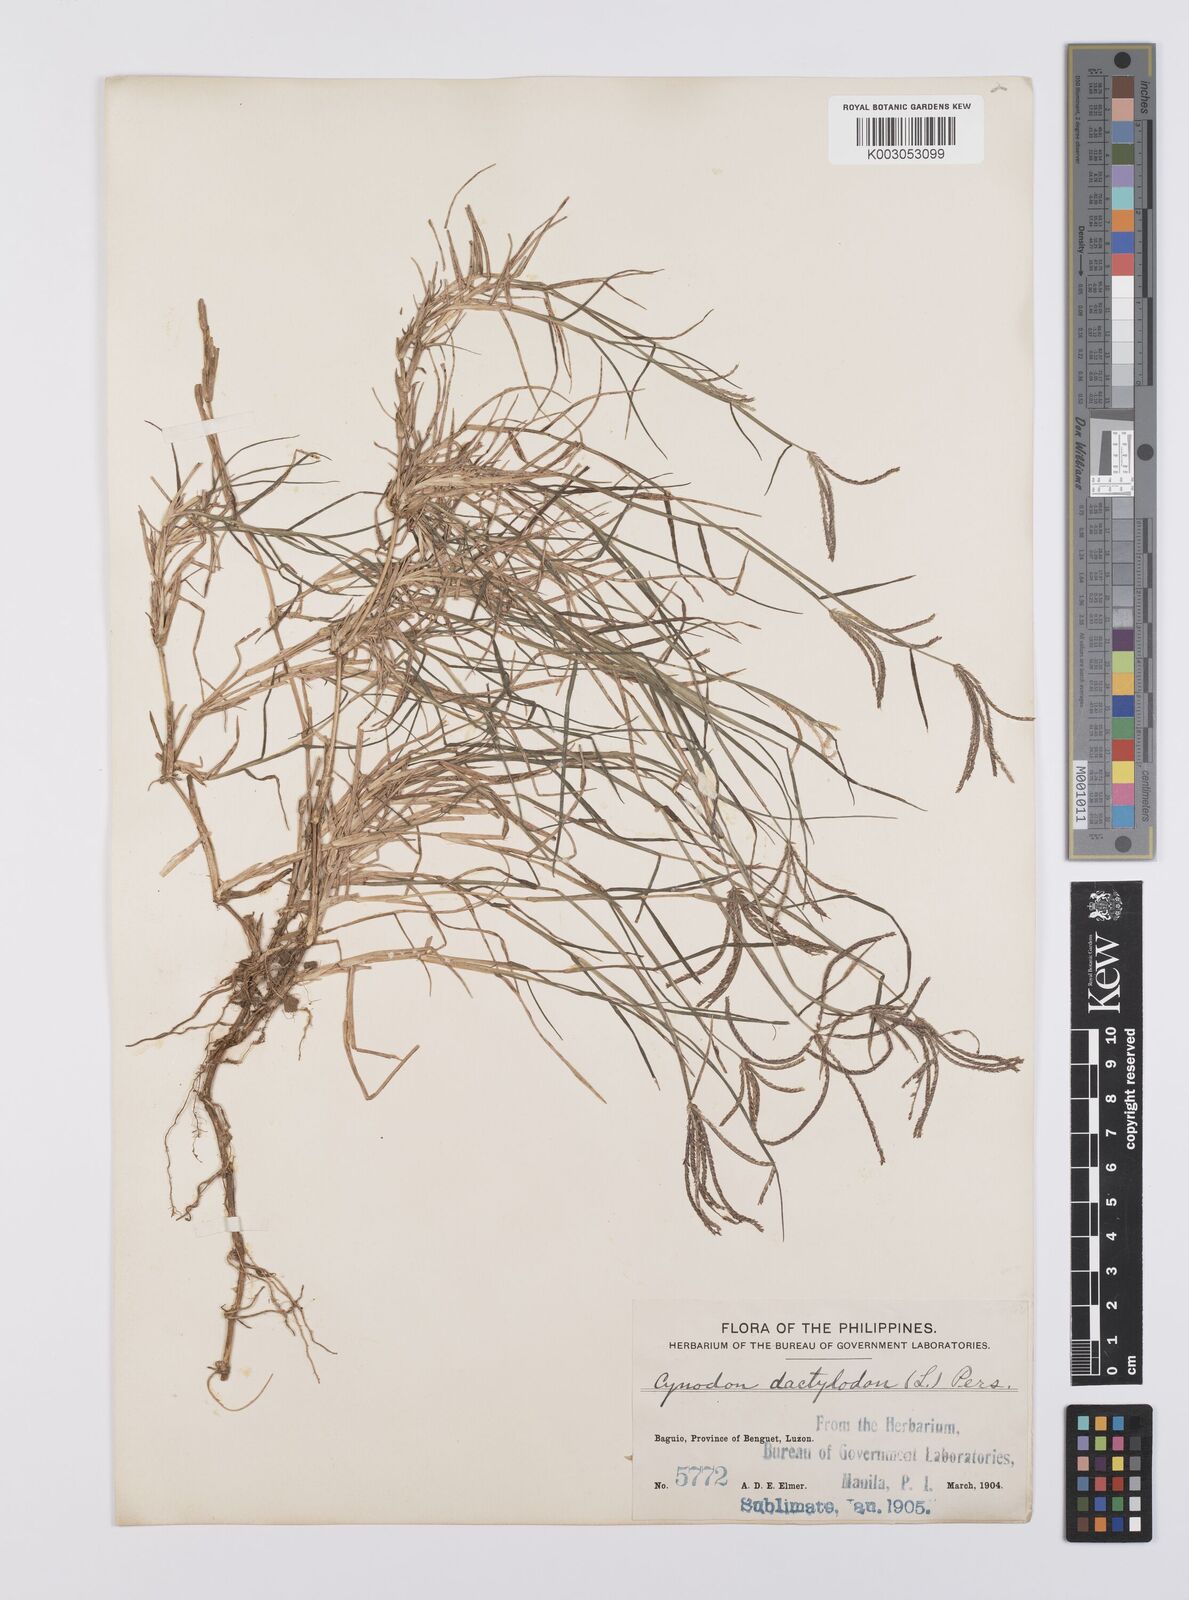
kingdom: Plantae
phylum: Tracheophyta
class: Liliopsida
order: Poales
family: Poaceae
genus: Cynodon
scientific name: Cynodon dactylon
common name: Bermuda grass
